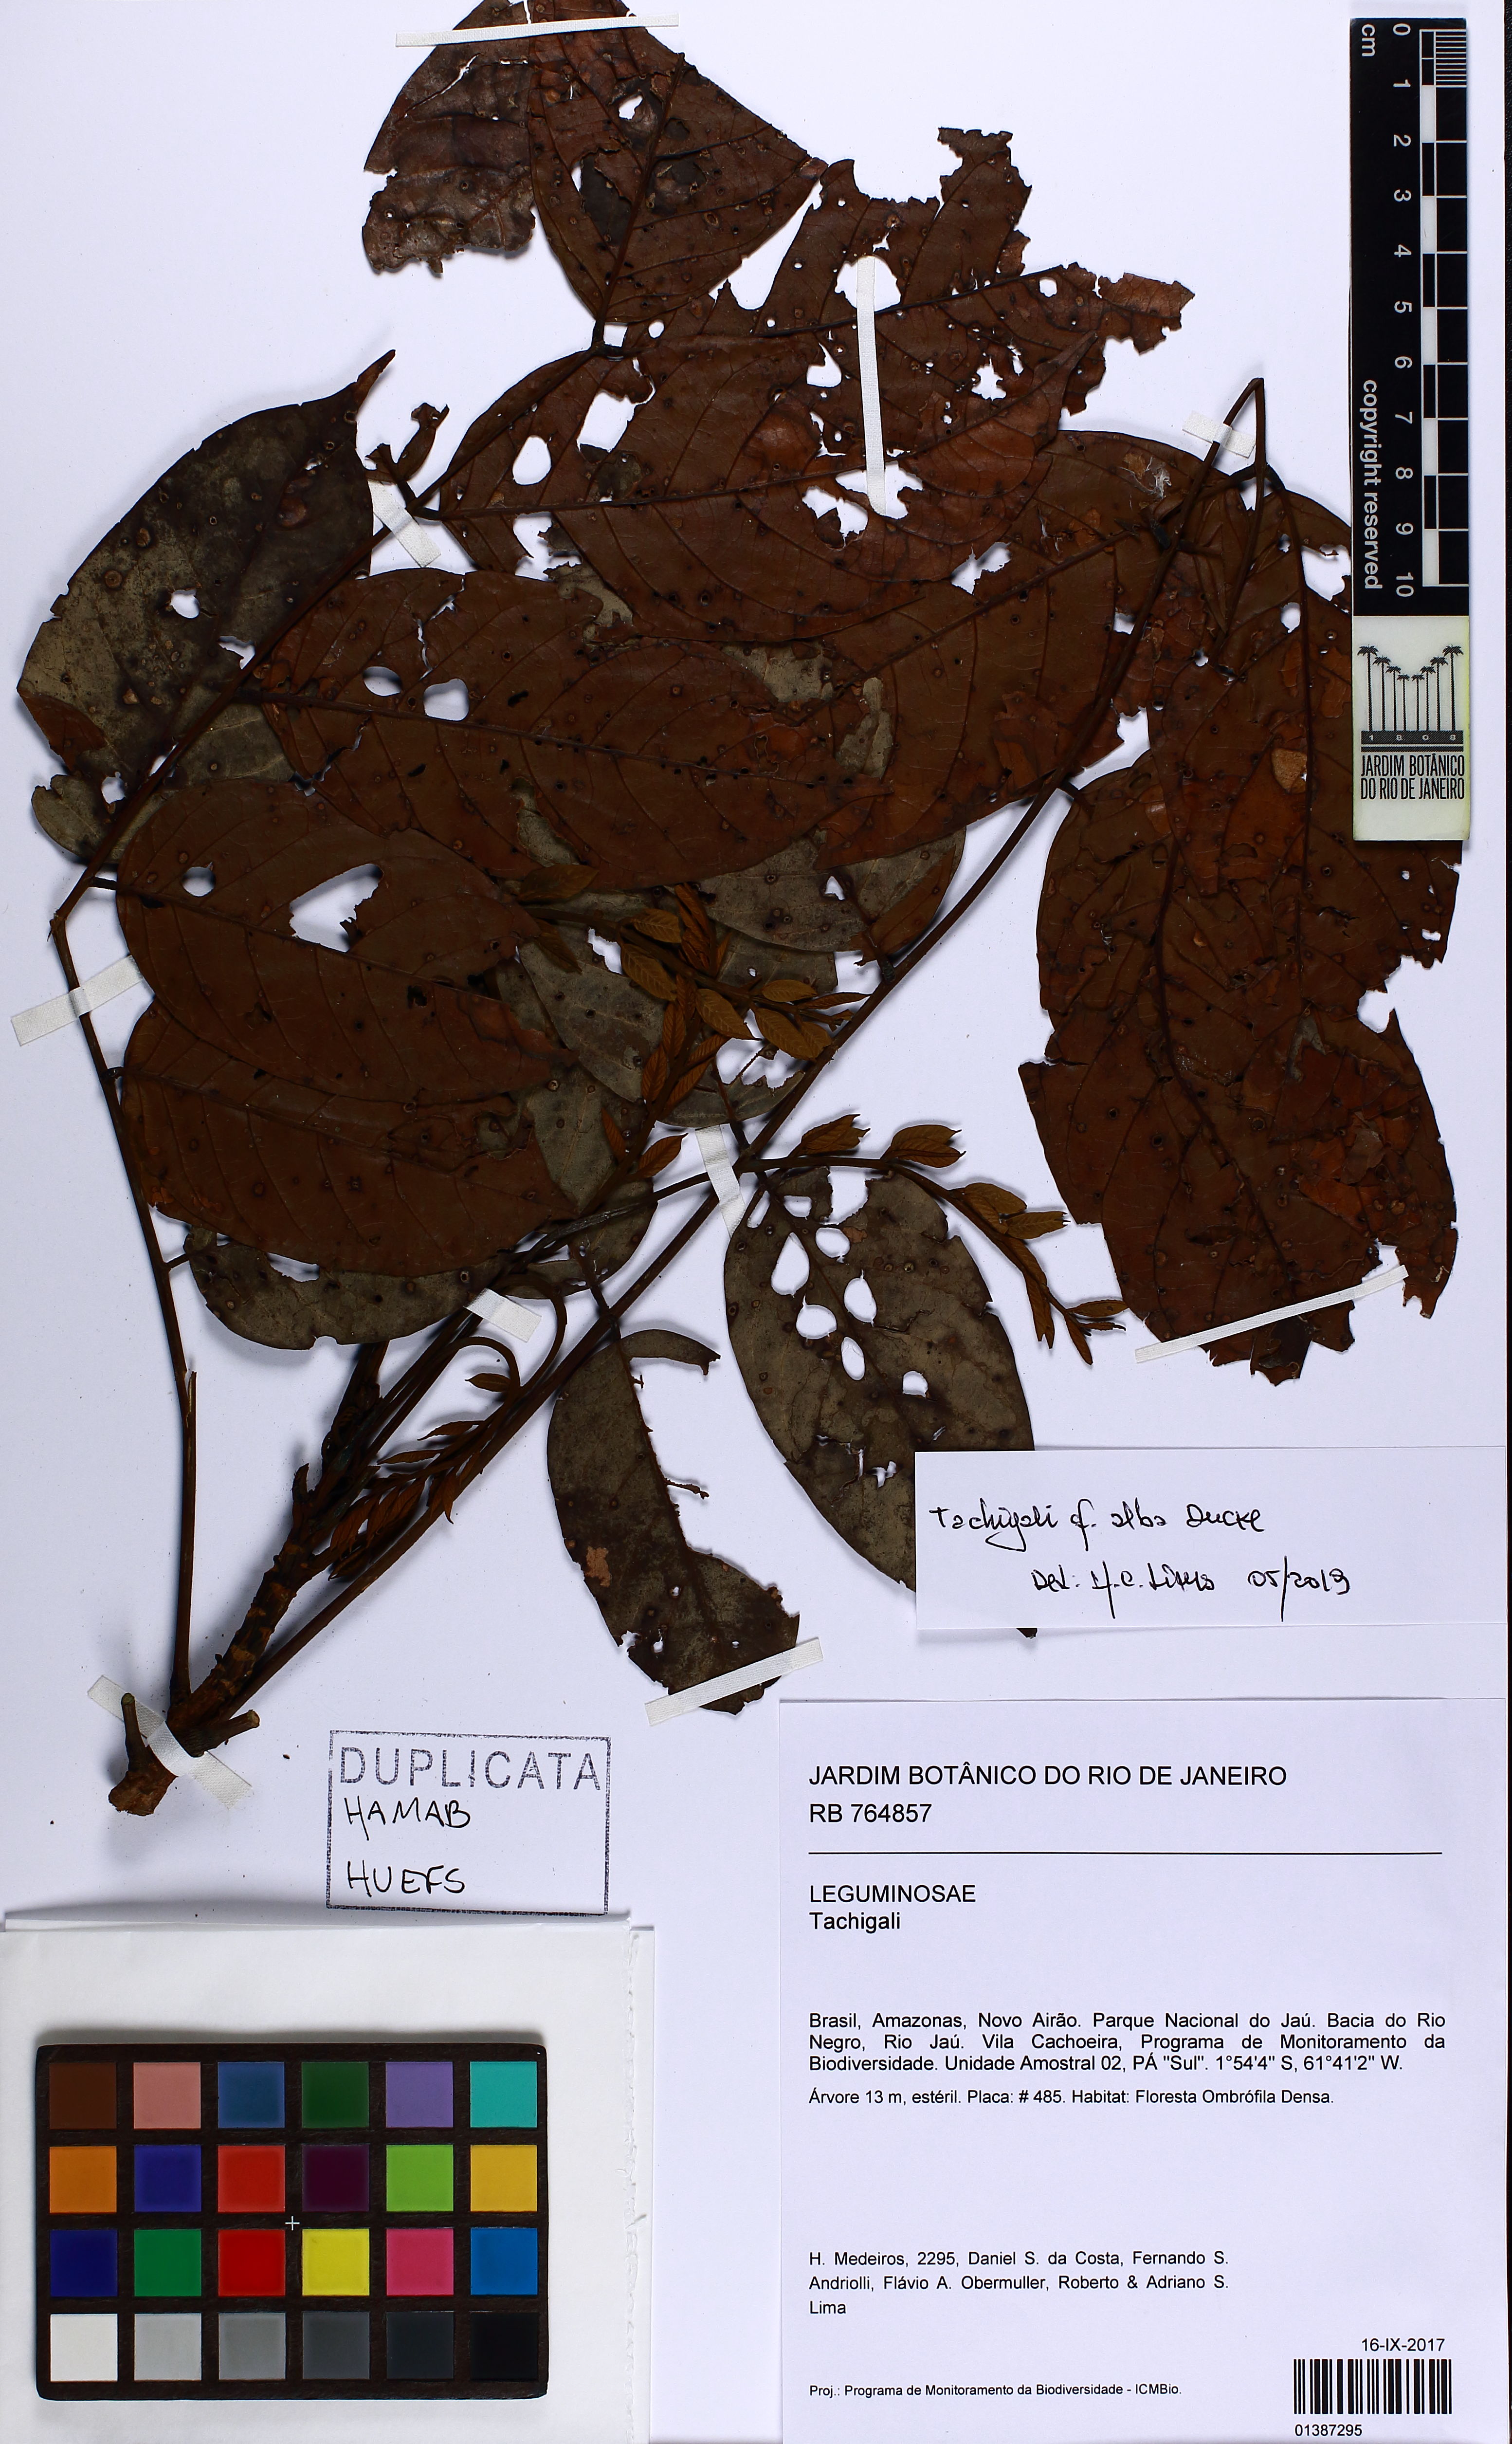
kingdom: Plantae
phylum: Tracheophyta
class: Magnoliopsida
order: Fabales
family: Fabaceae
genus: Tachigali
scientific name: Tachigali alba
